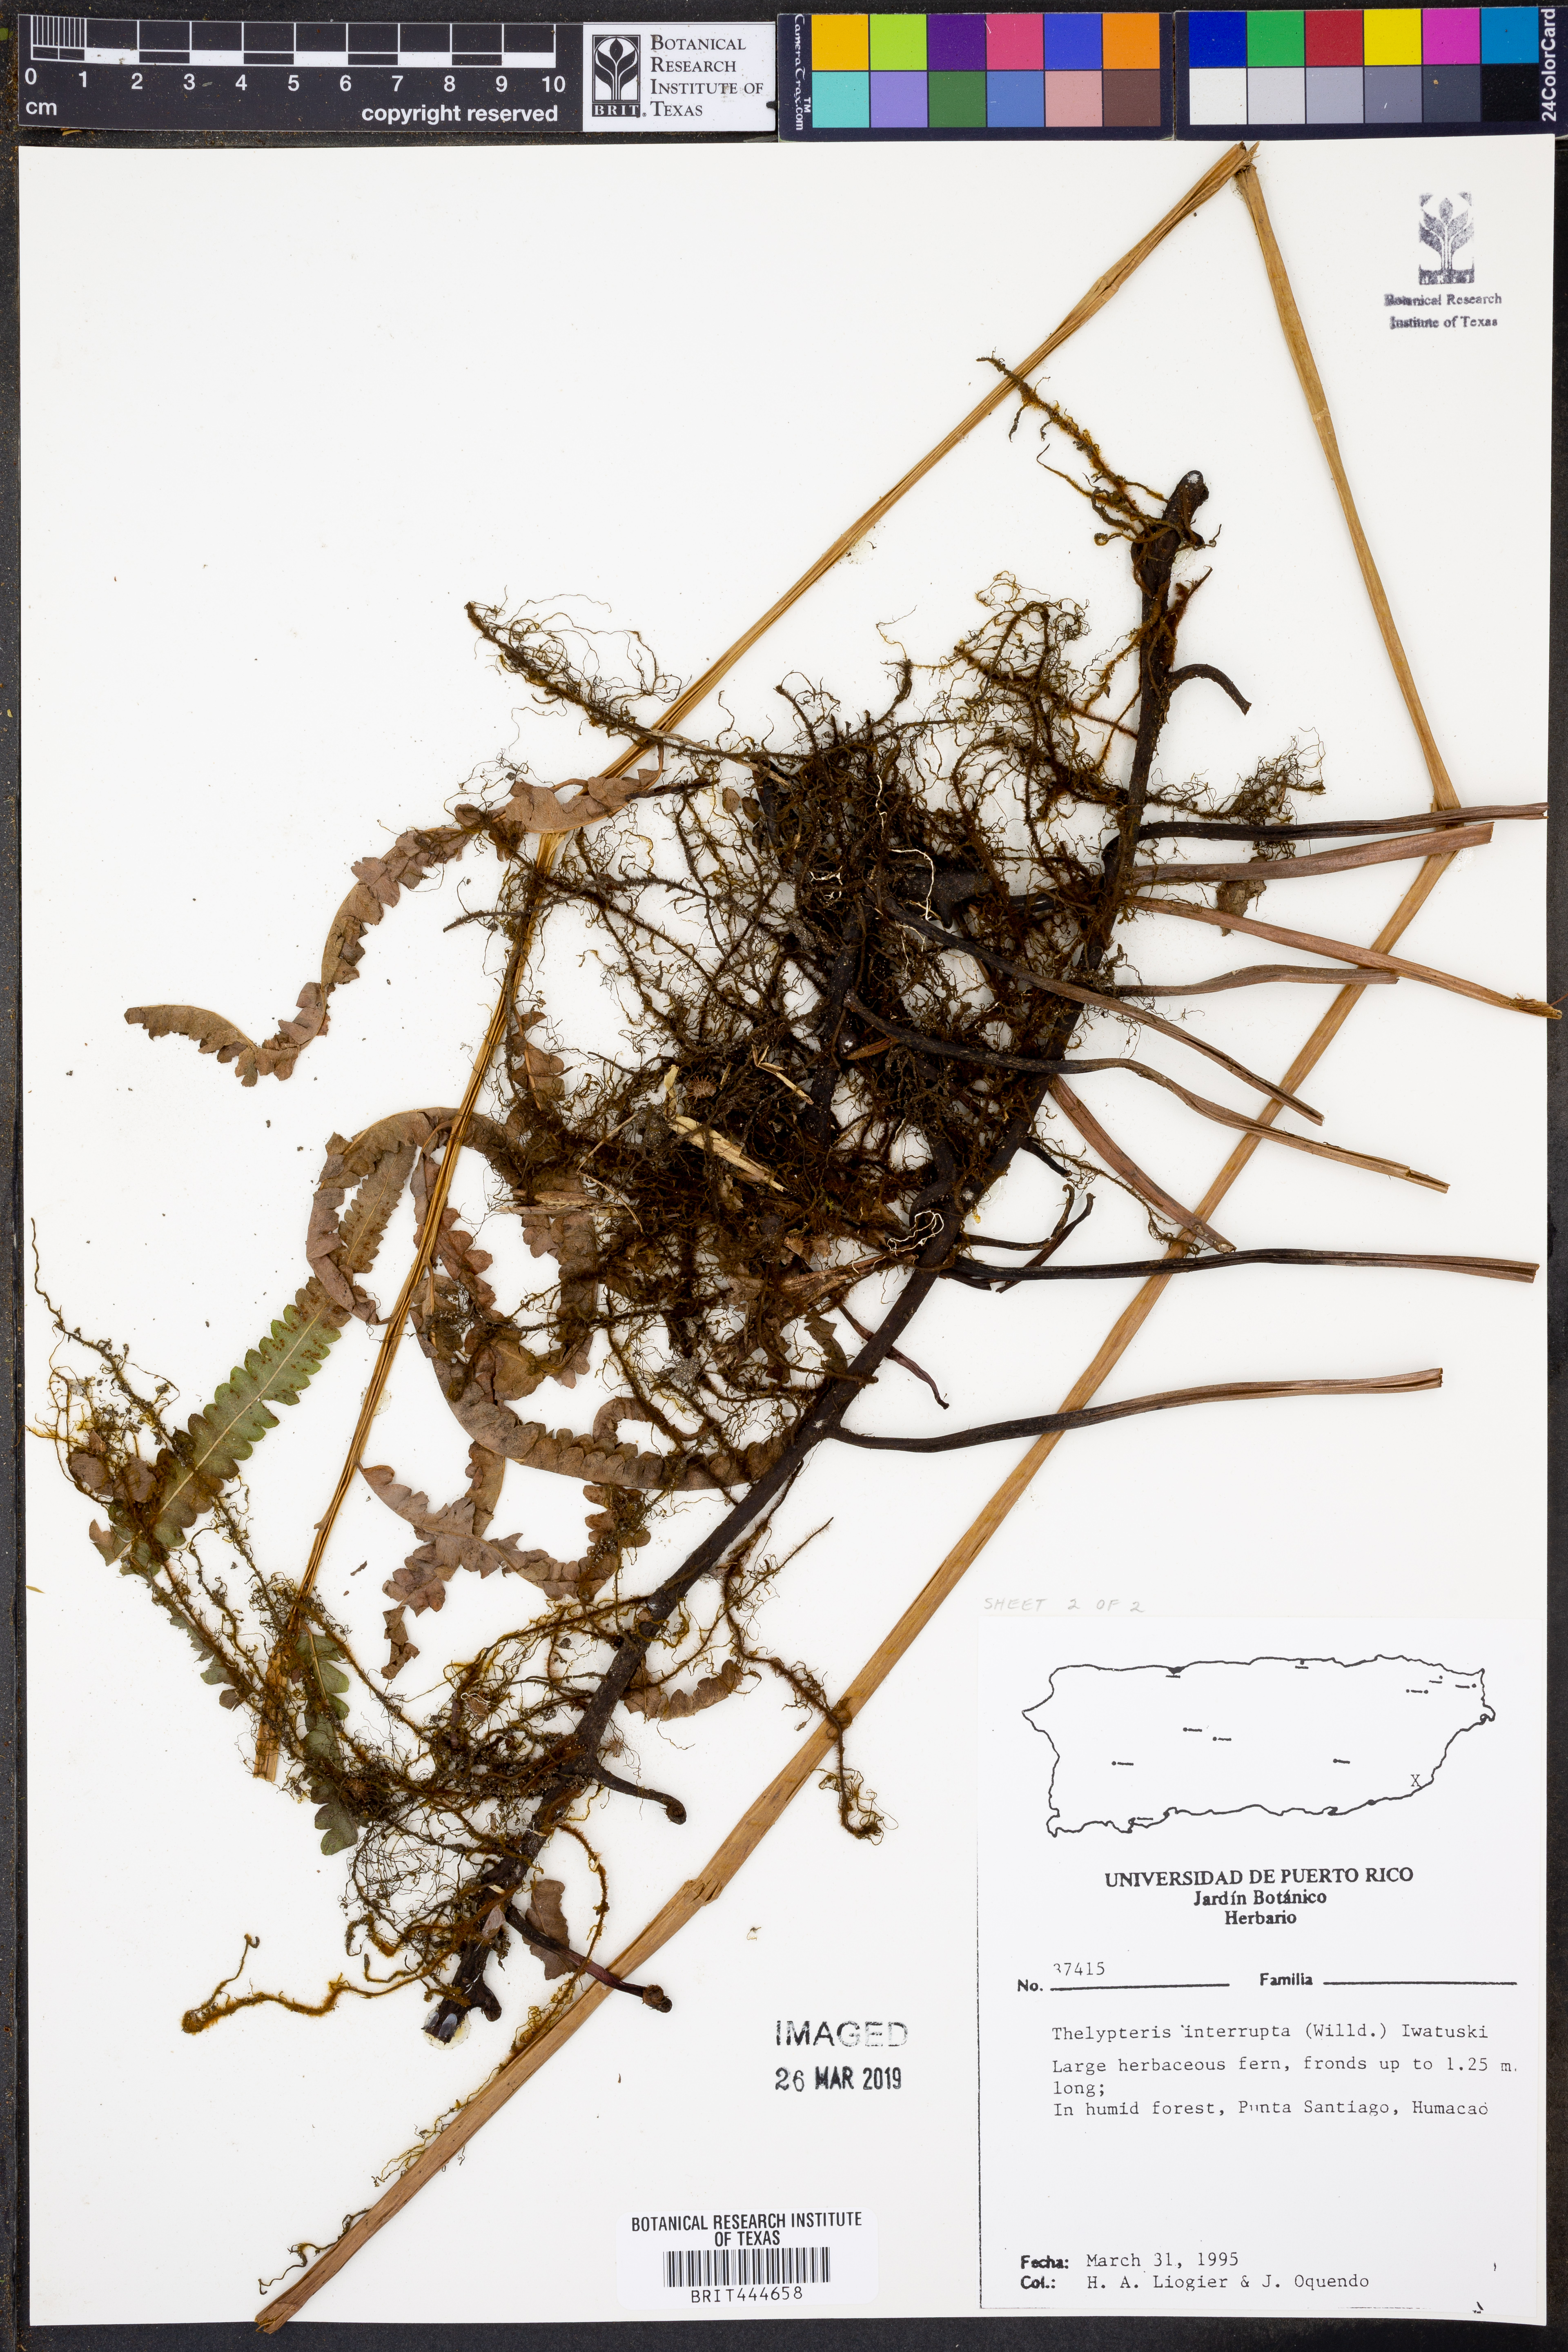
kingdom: Plantae
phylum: Tracheophyta
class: Polypodiopsida
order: Polypodiales
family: Thelypteridaceae
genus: Cyclosorus
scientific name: Cyclosorus interruptus
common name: Neke fern
